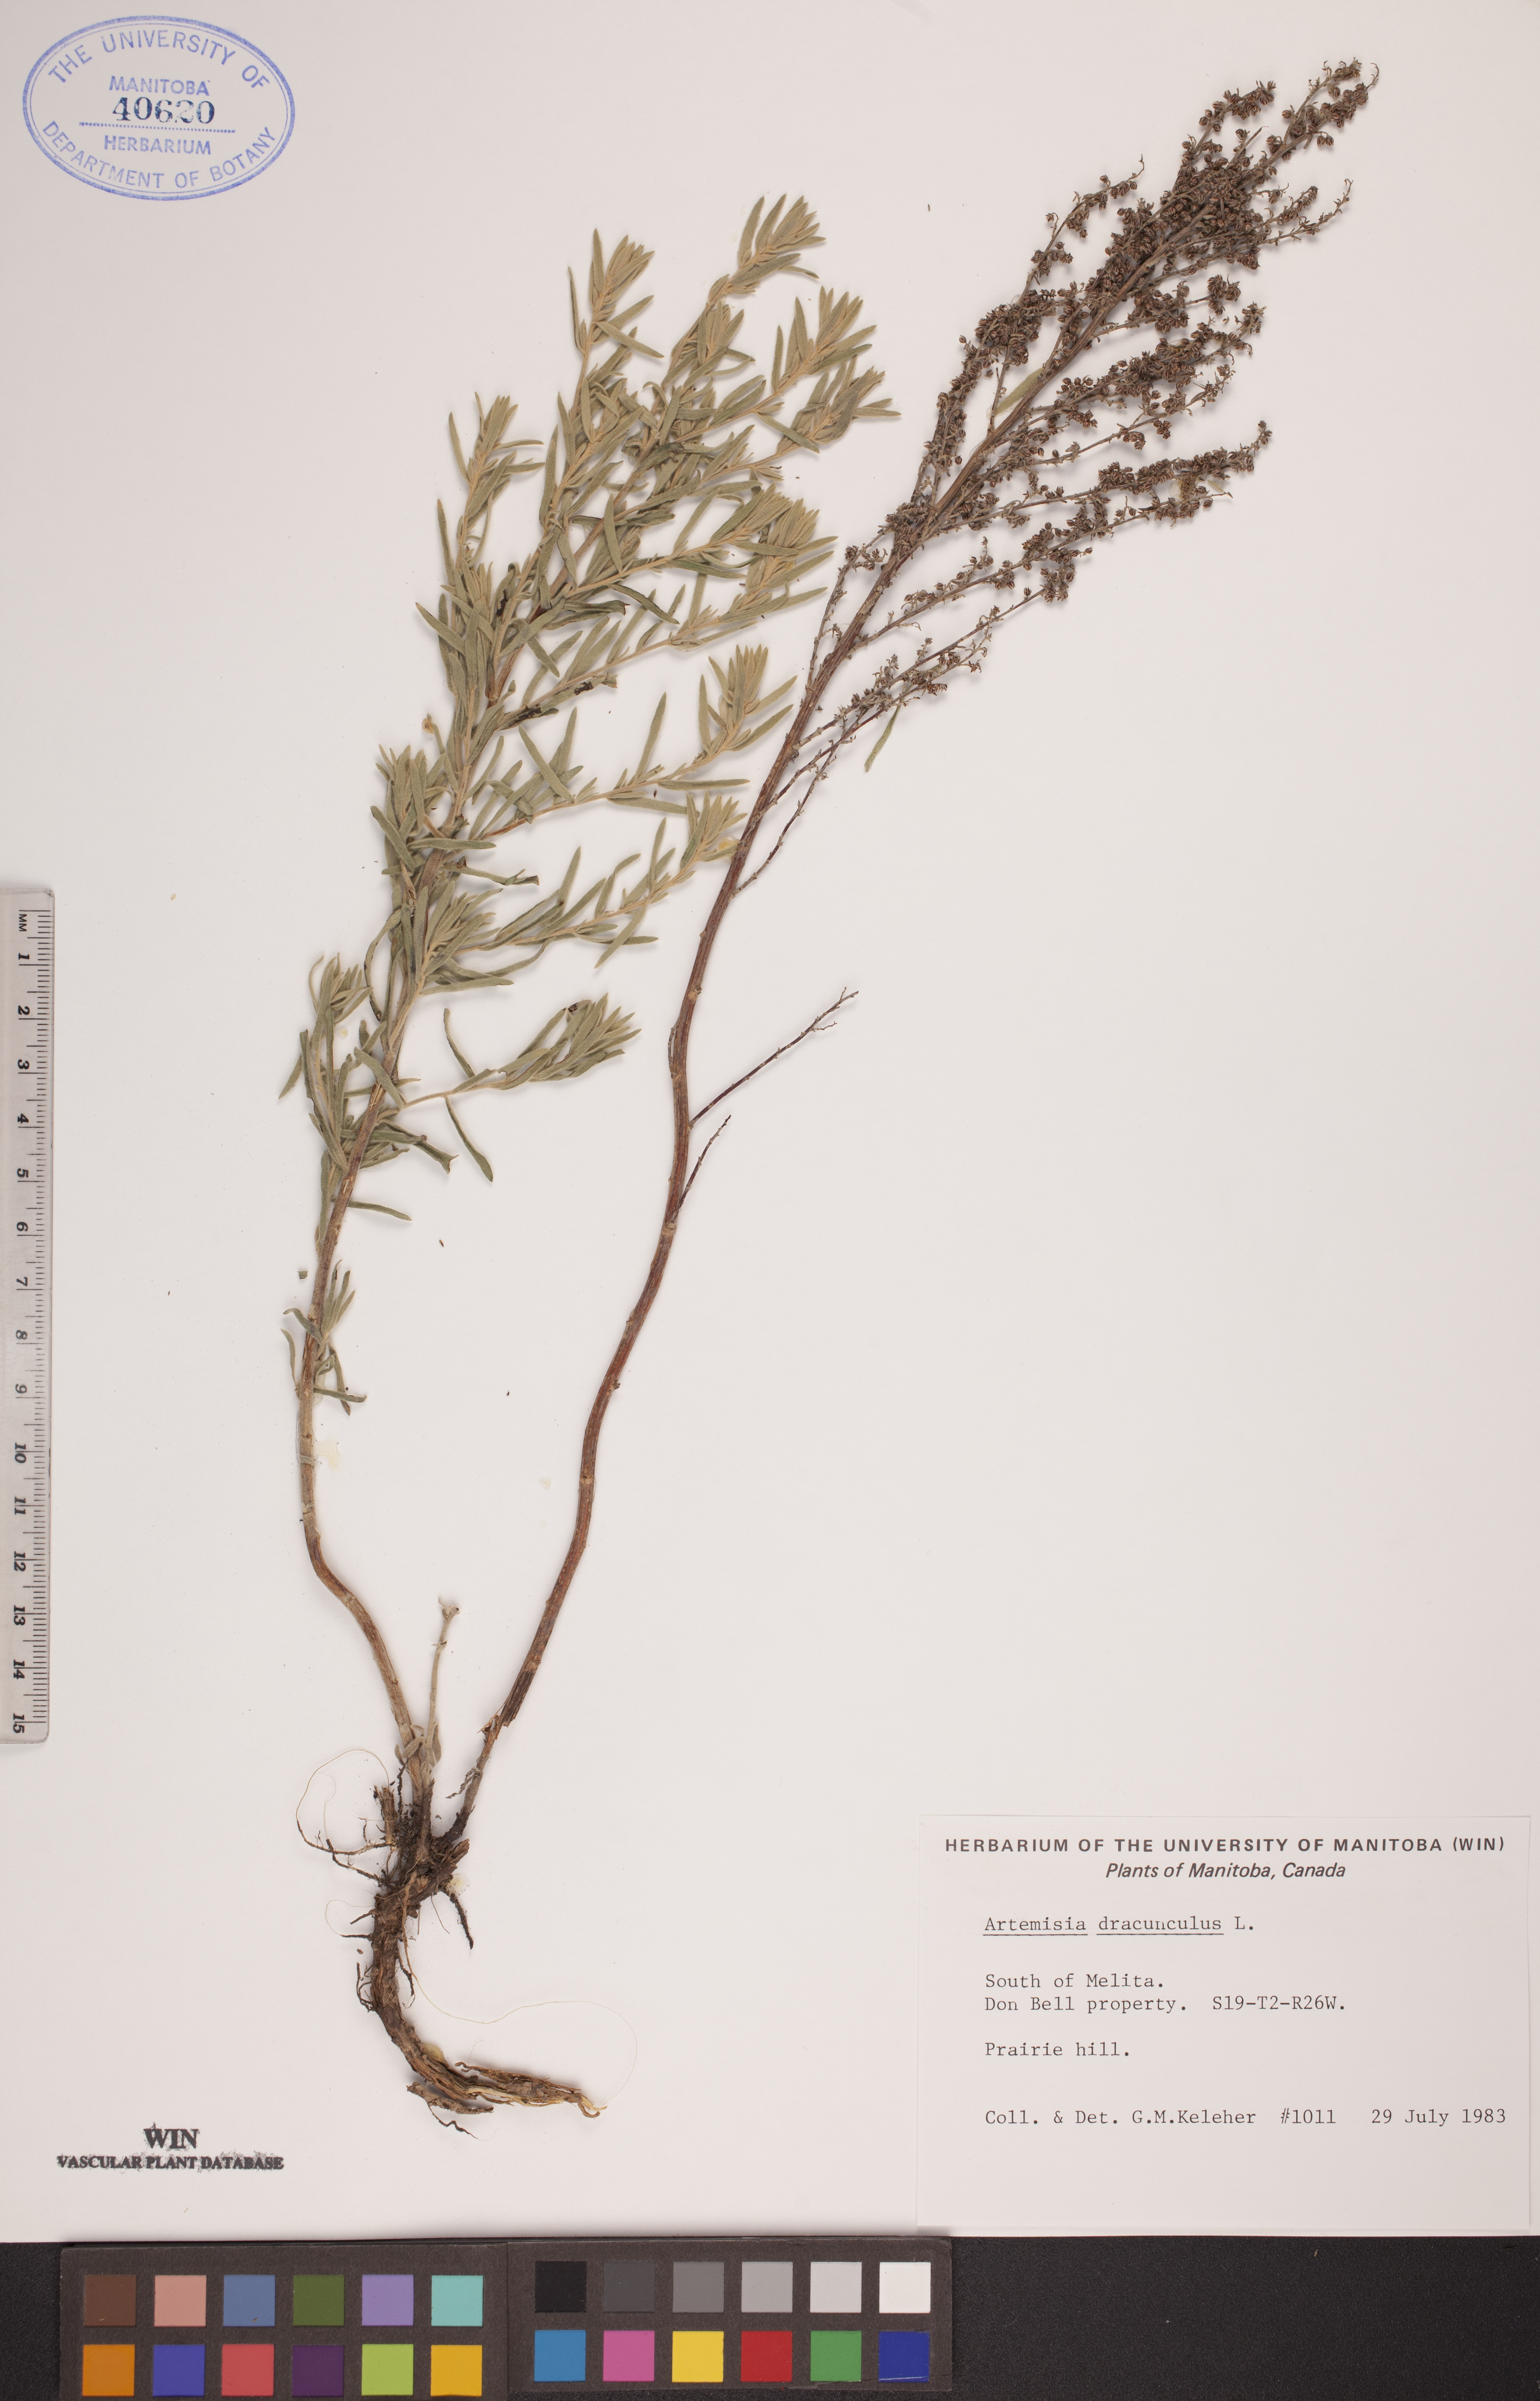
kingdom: Plantae
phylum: Tracheophyta
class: Magnoliopsida
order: Asterales
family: Asteraceae
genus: Artemisia
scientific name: Artemisia dracunculus
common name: Tarragon
